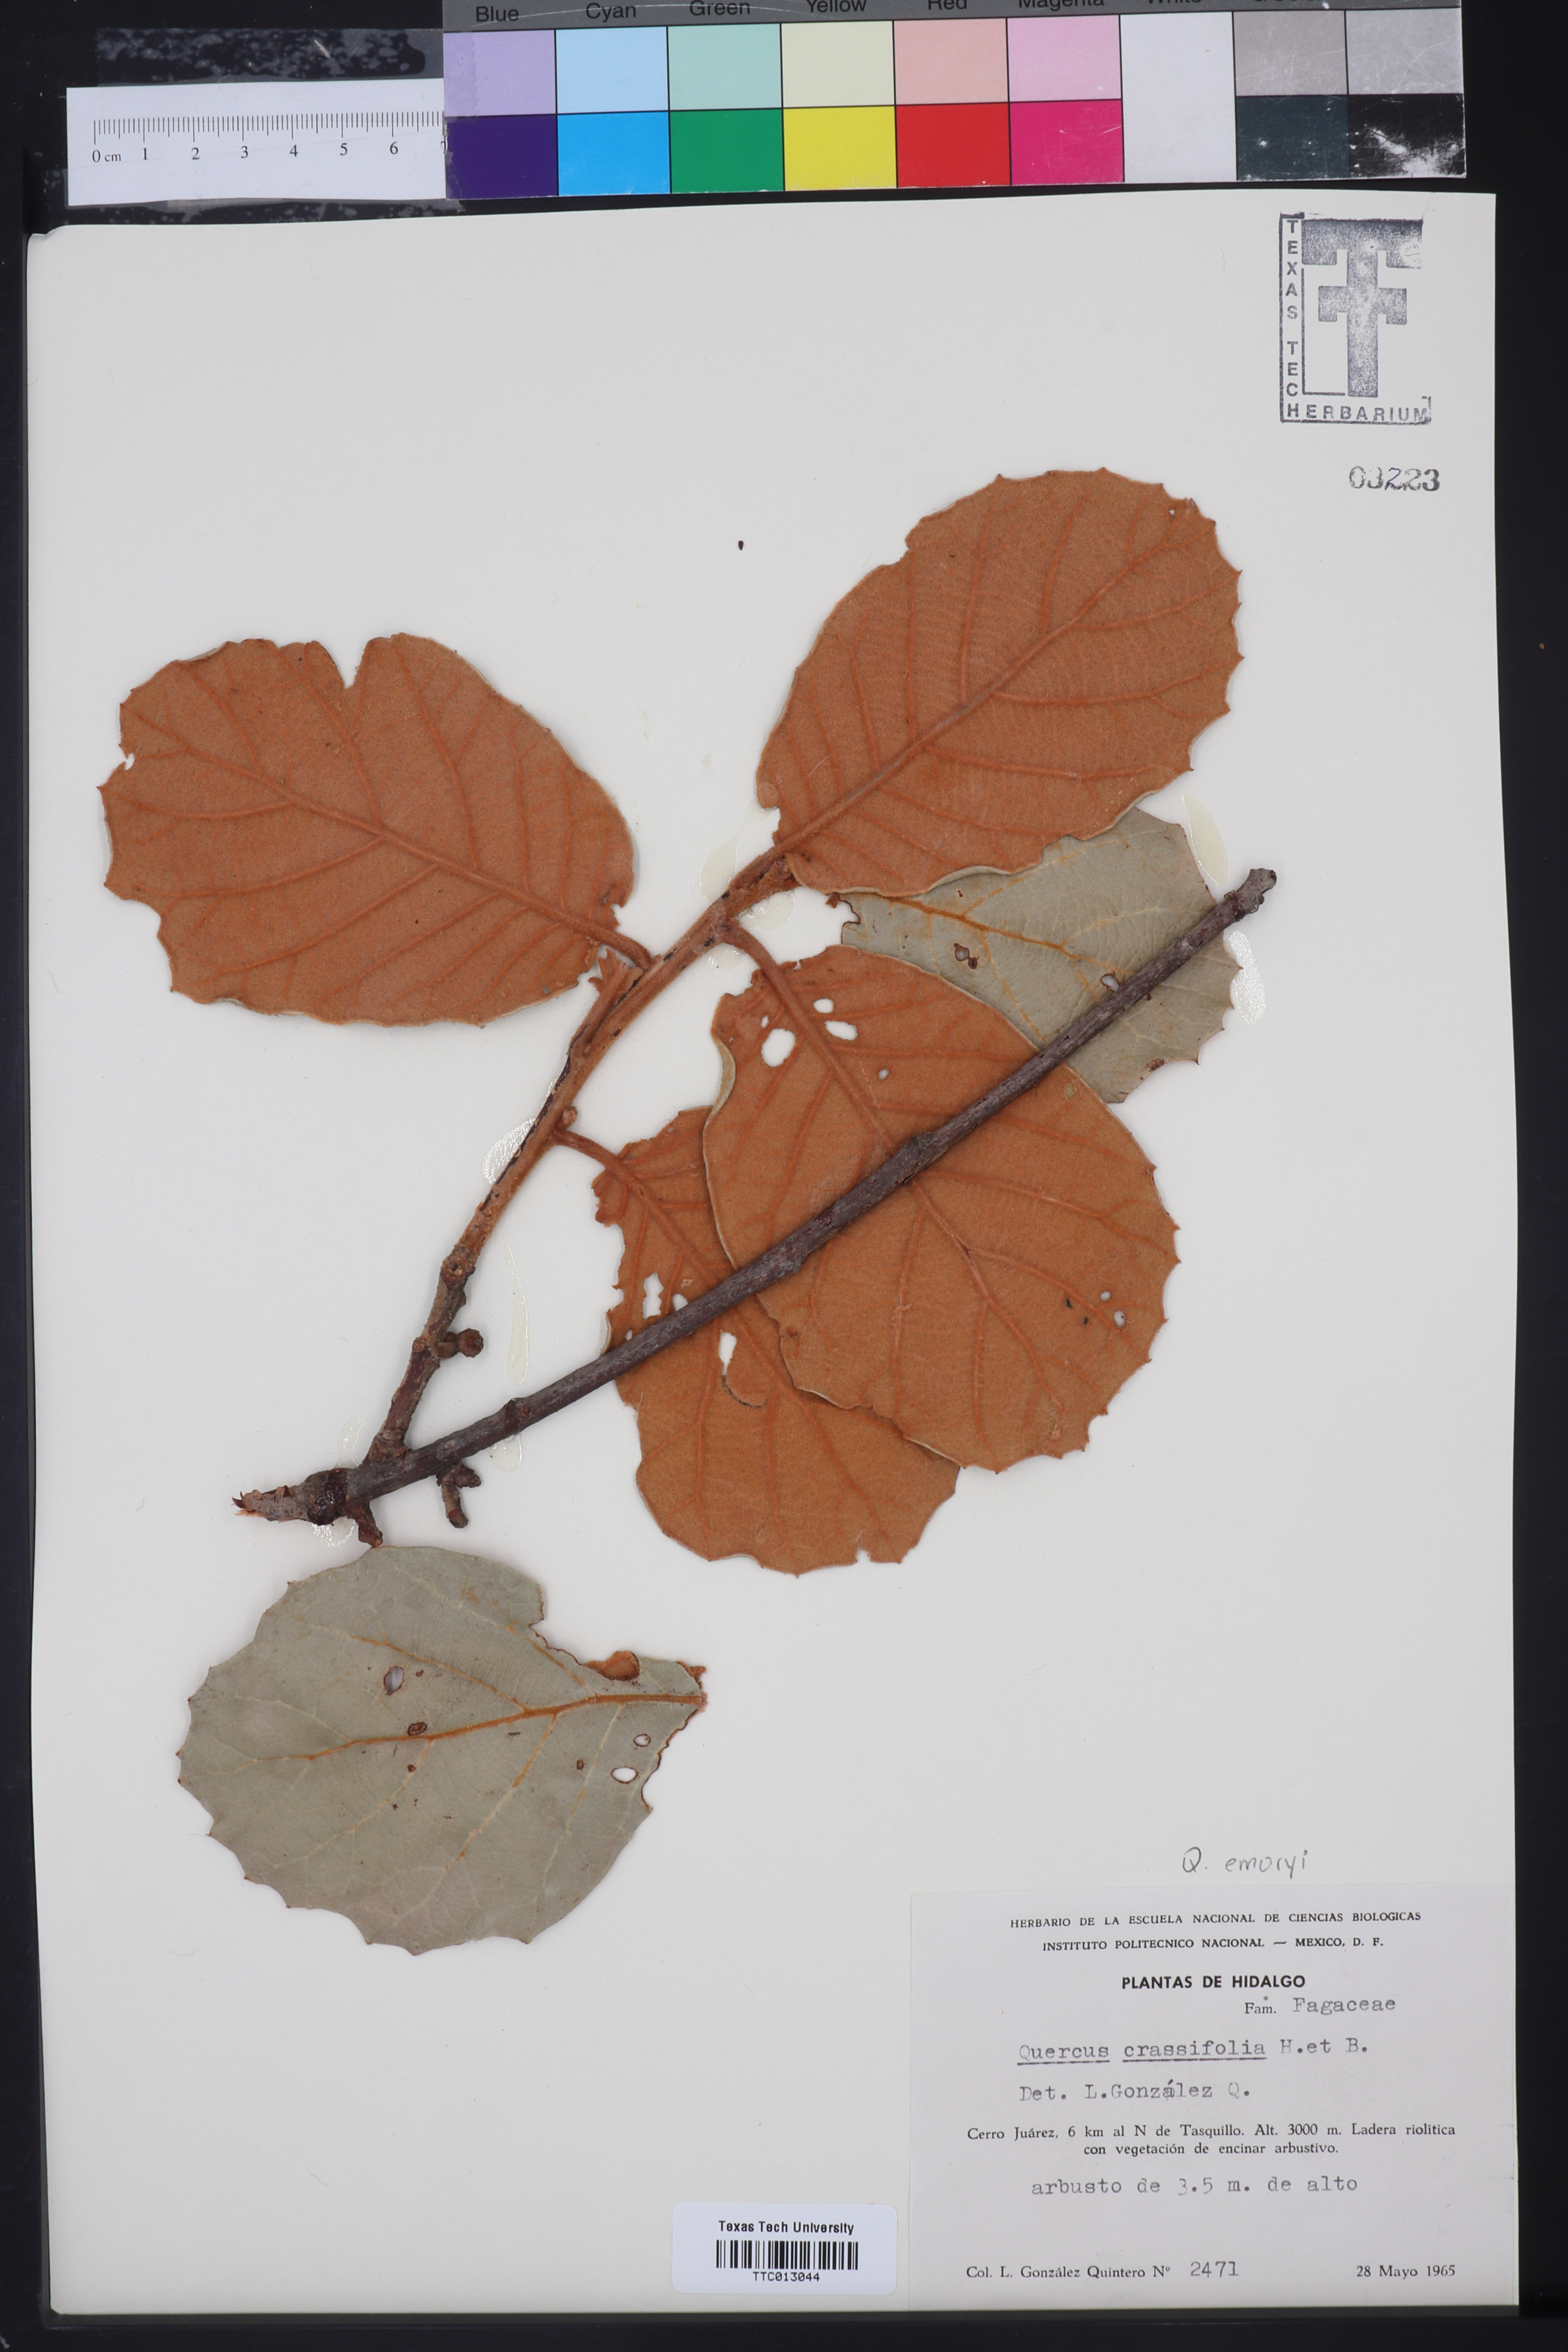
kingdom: Plantae
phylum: Tracheophyta
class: Magnoliopsida
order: Fagales
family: Fagaceae
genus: Quercus
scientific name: Quercus crassifolia
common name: Leather leaf mexican oak
